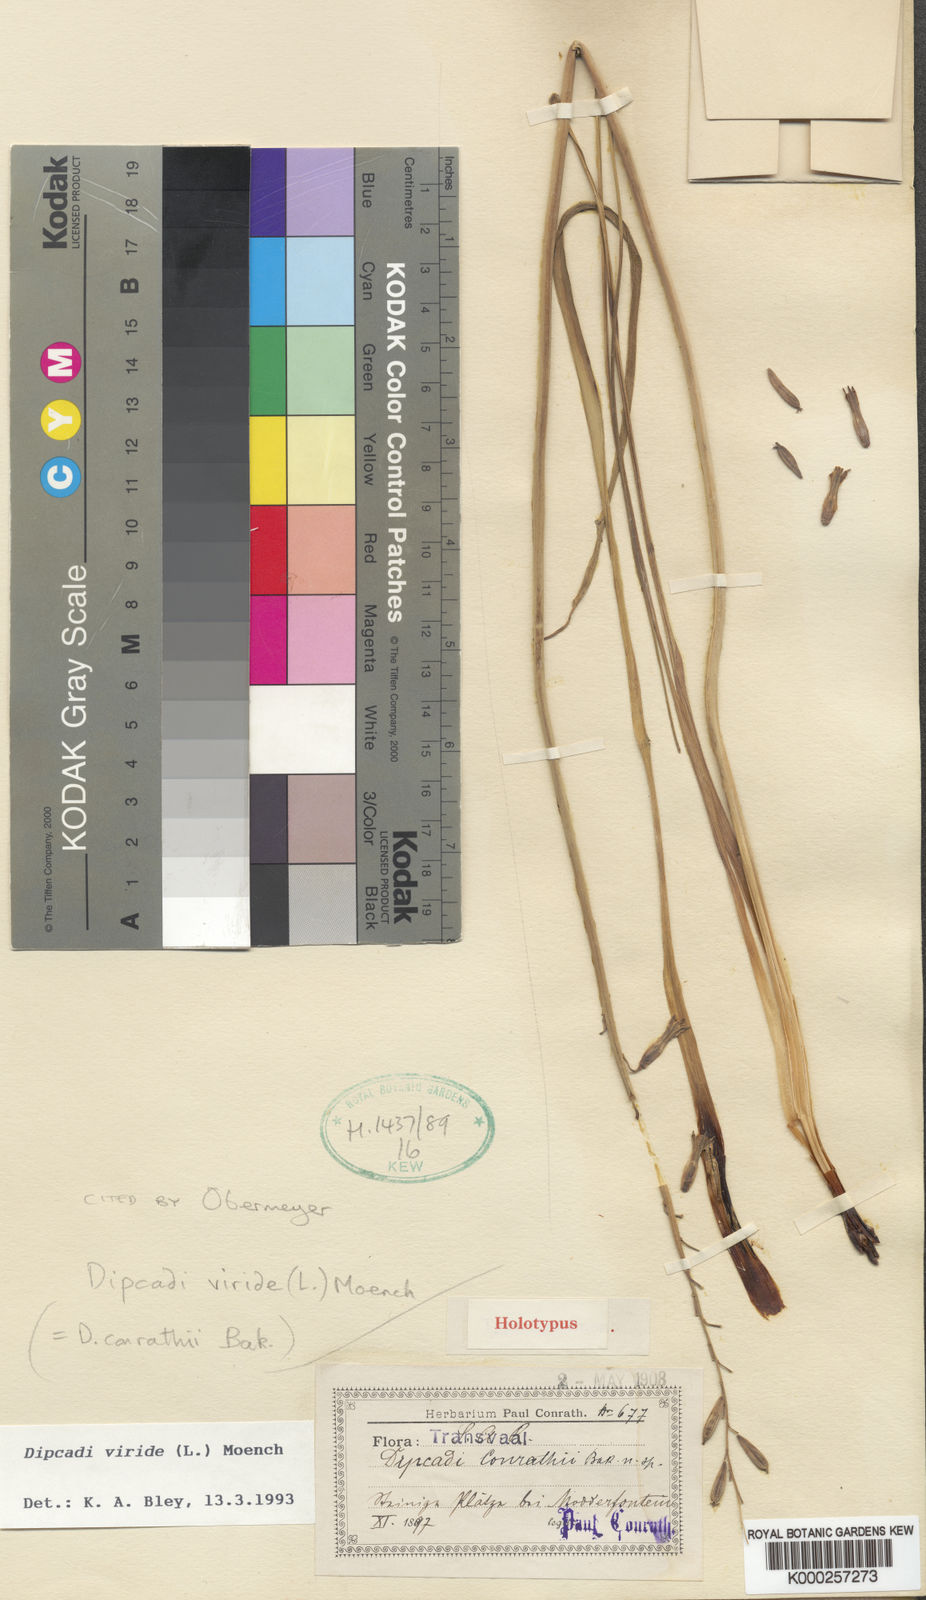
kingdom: Plantae
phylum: Tracheophyta
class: Liliopsida
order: Asparagales
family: Asparagaceae
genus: Dipcadi
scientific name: Dipcadi viride
